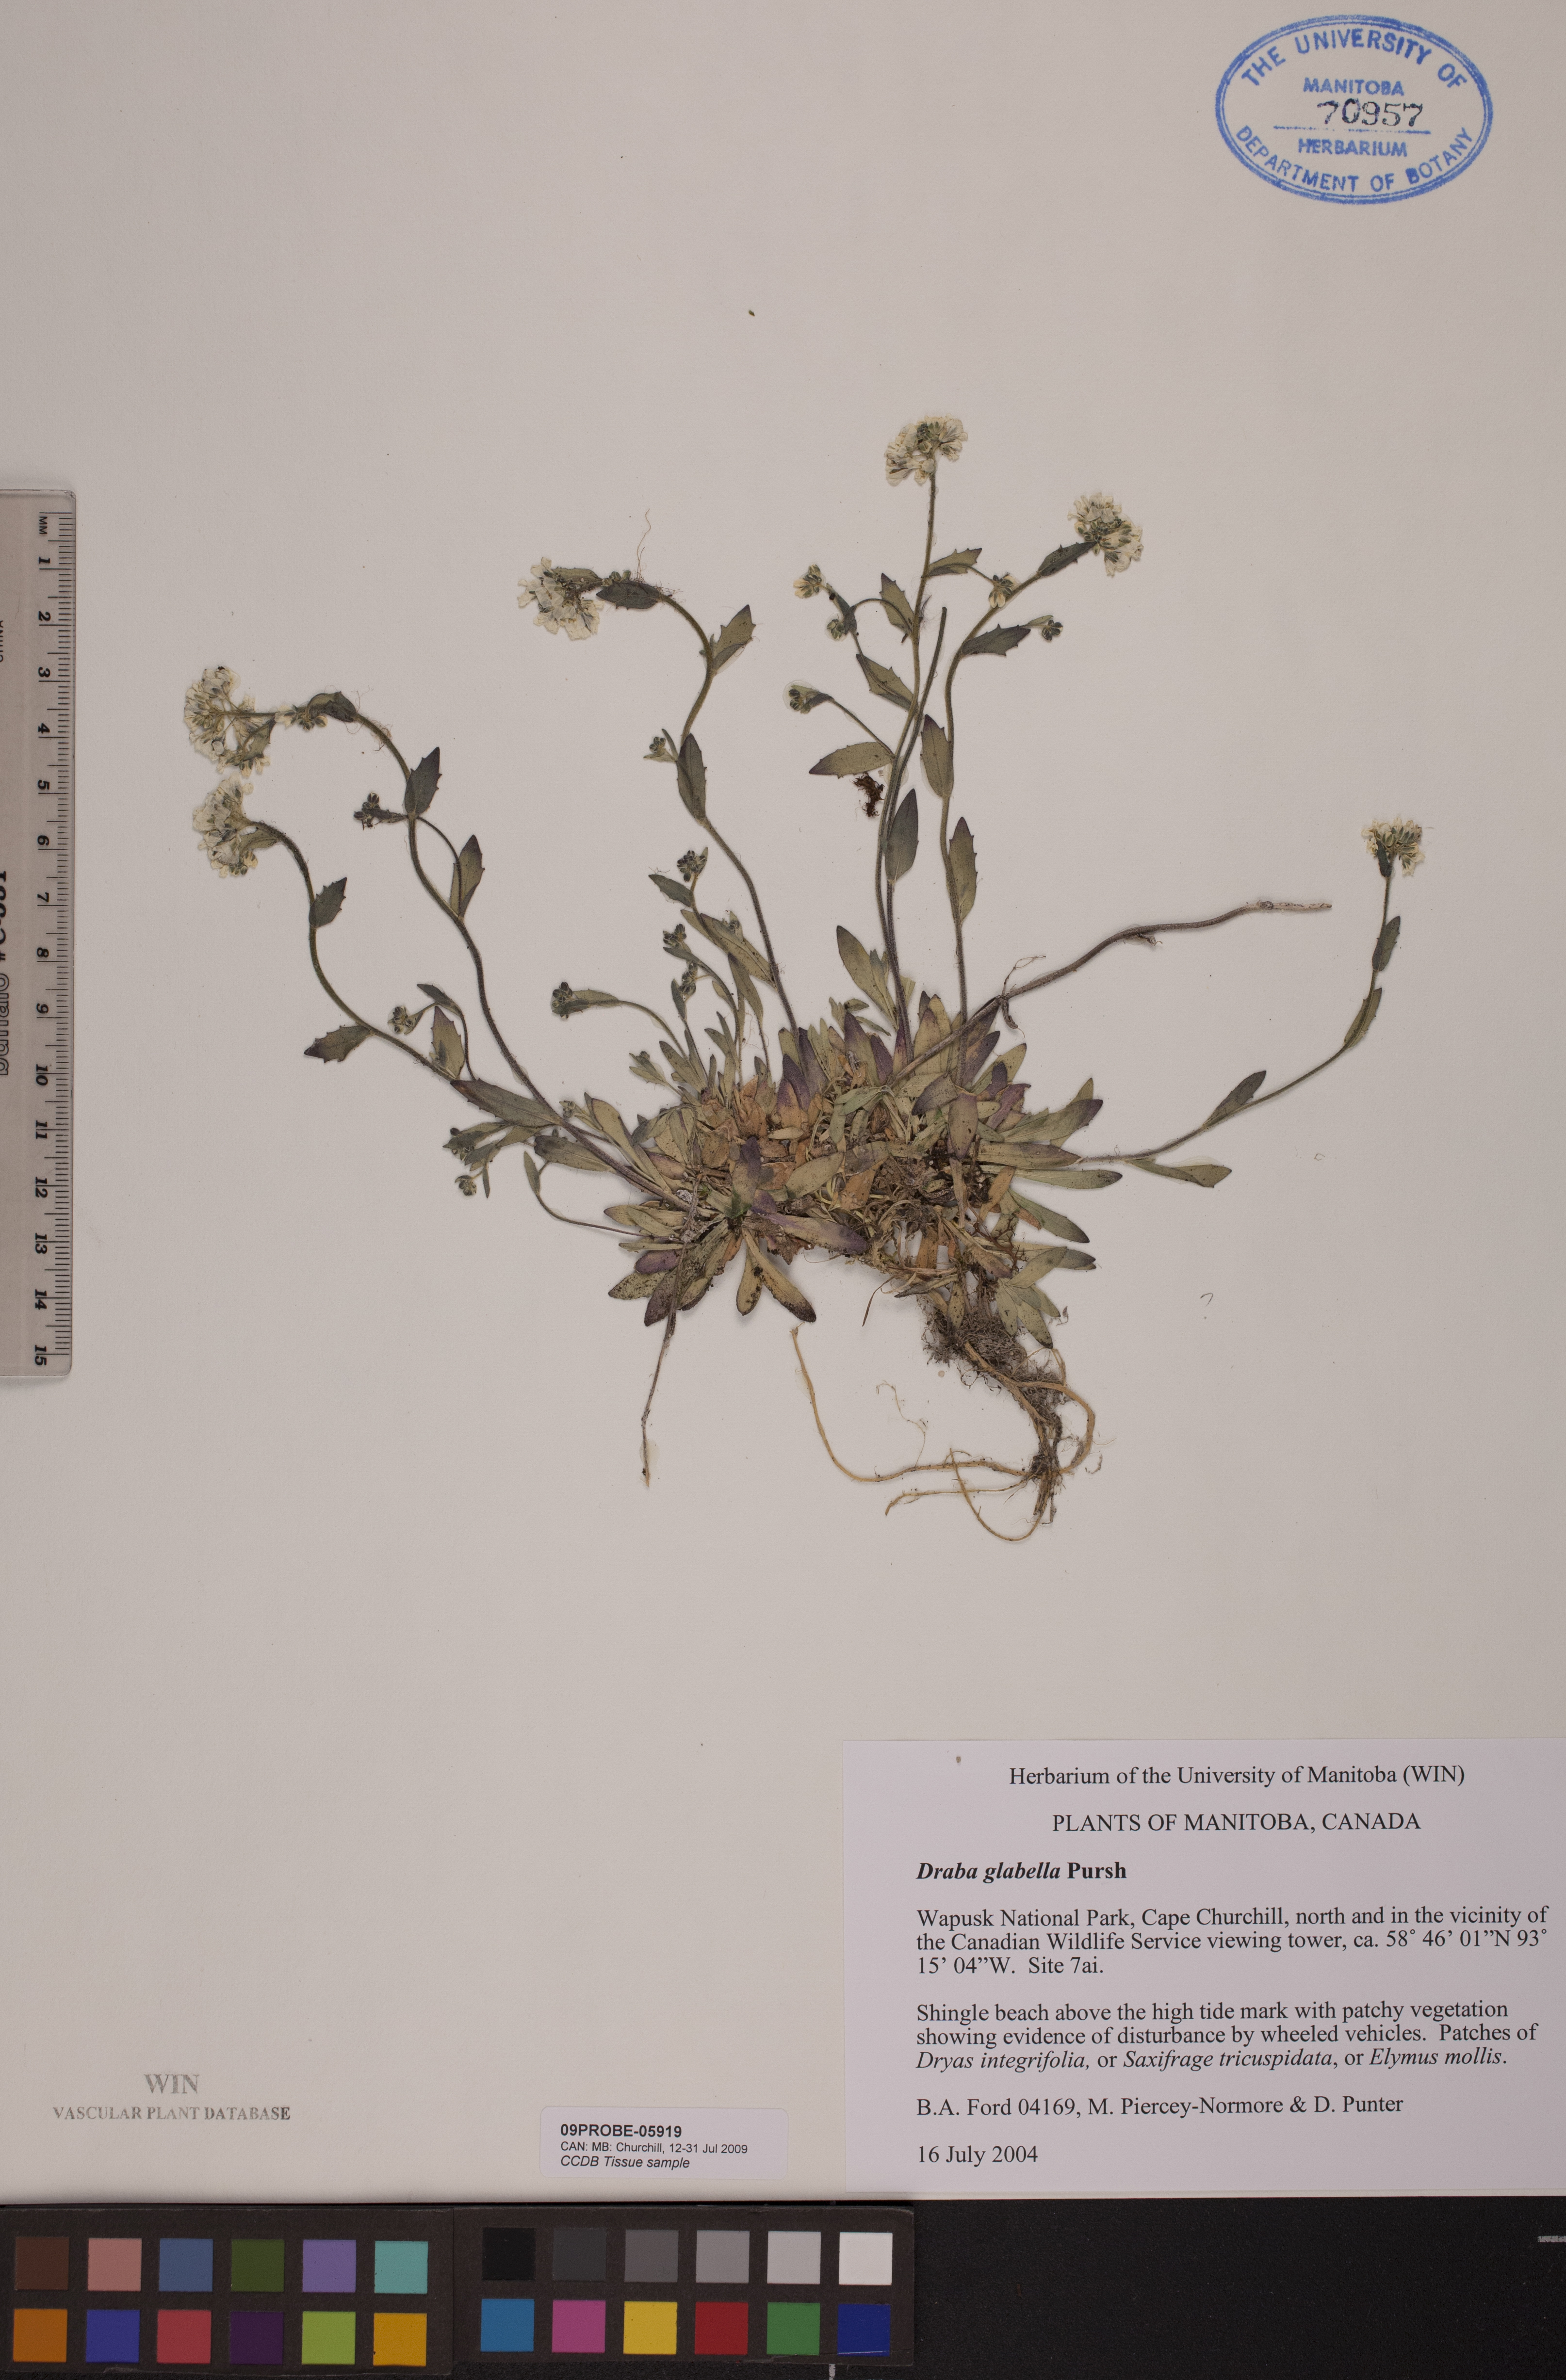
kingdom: Plantae
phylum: Tracheophyta
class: Magnoliopsida
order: Brassicales
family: Brassicaceae
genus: Draba
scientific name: Draba glabella
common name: Glaucous draba
